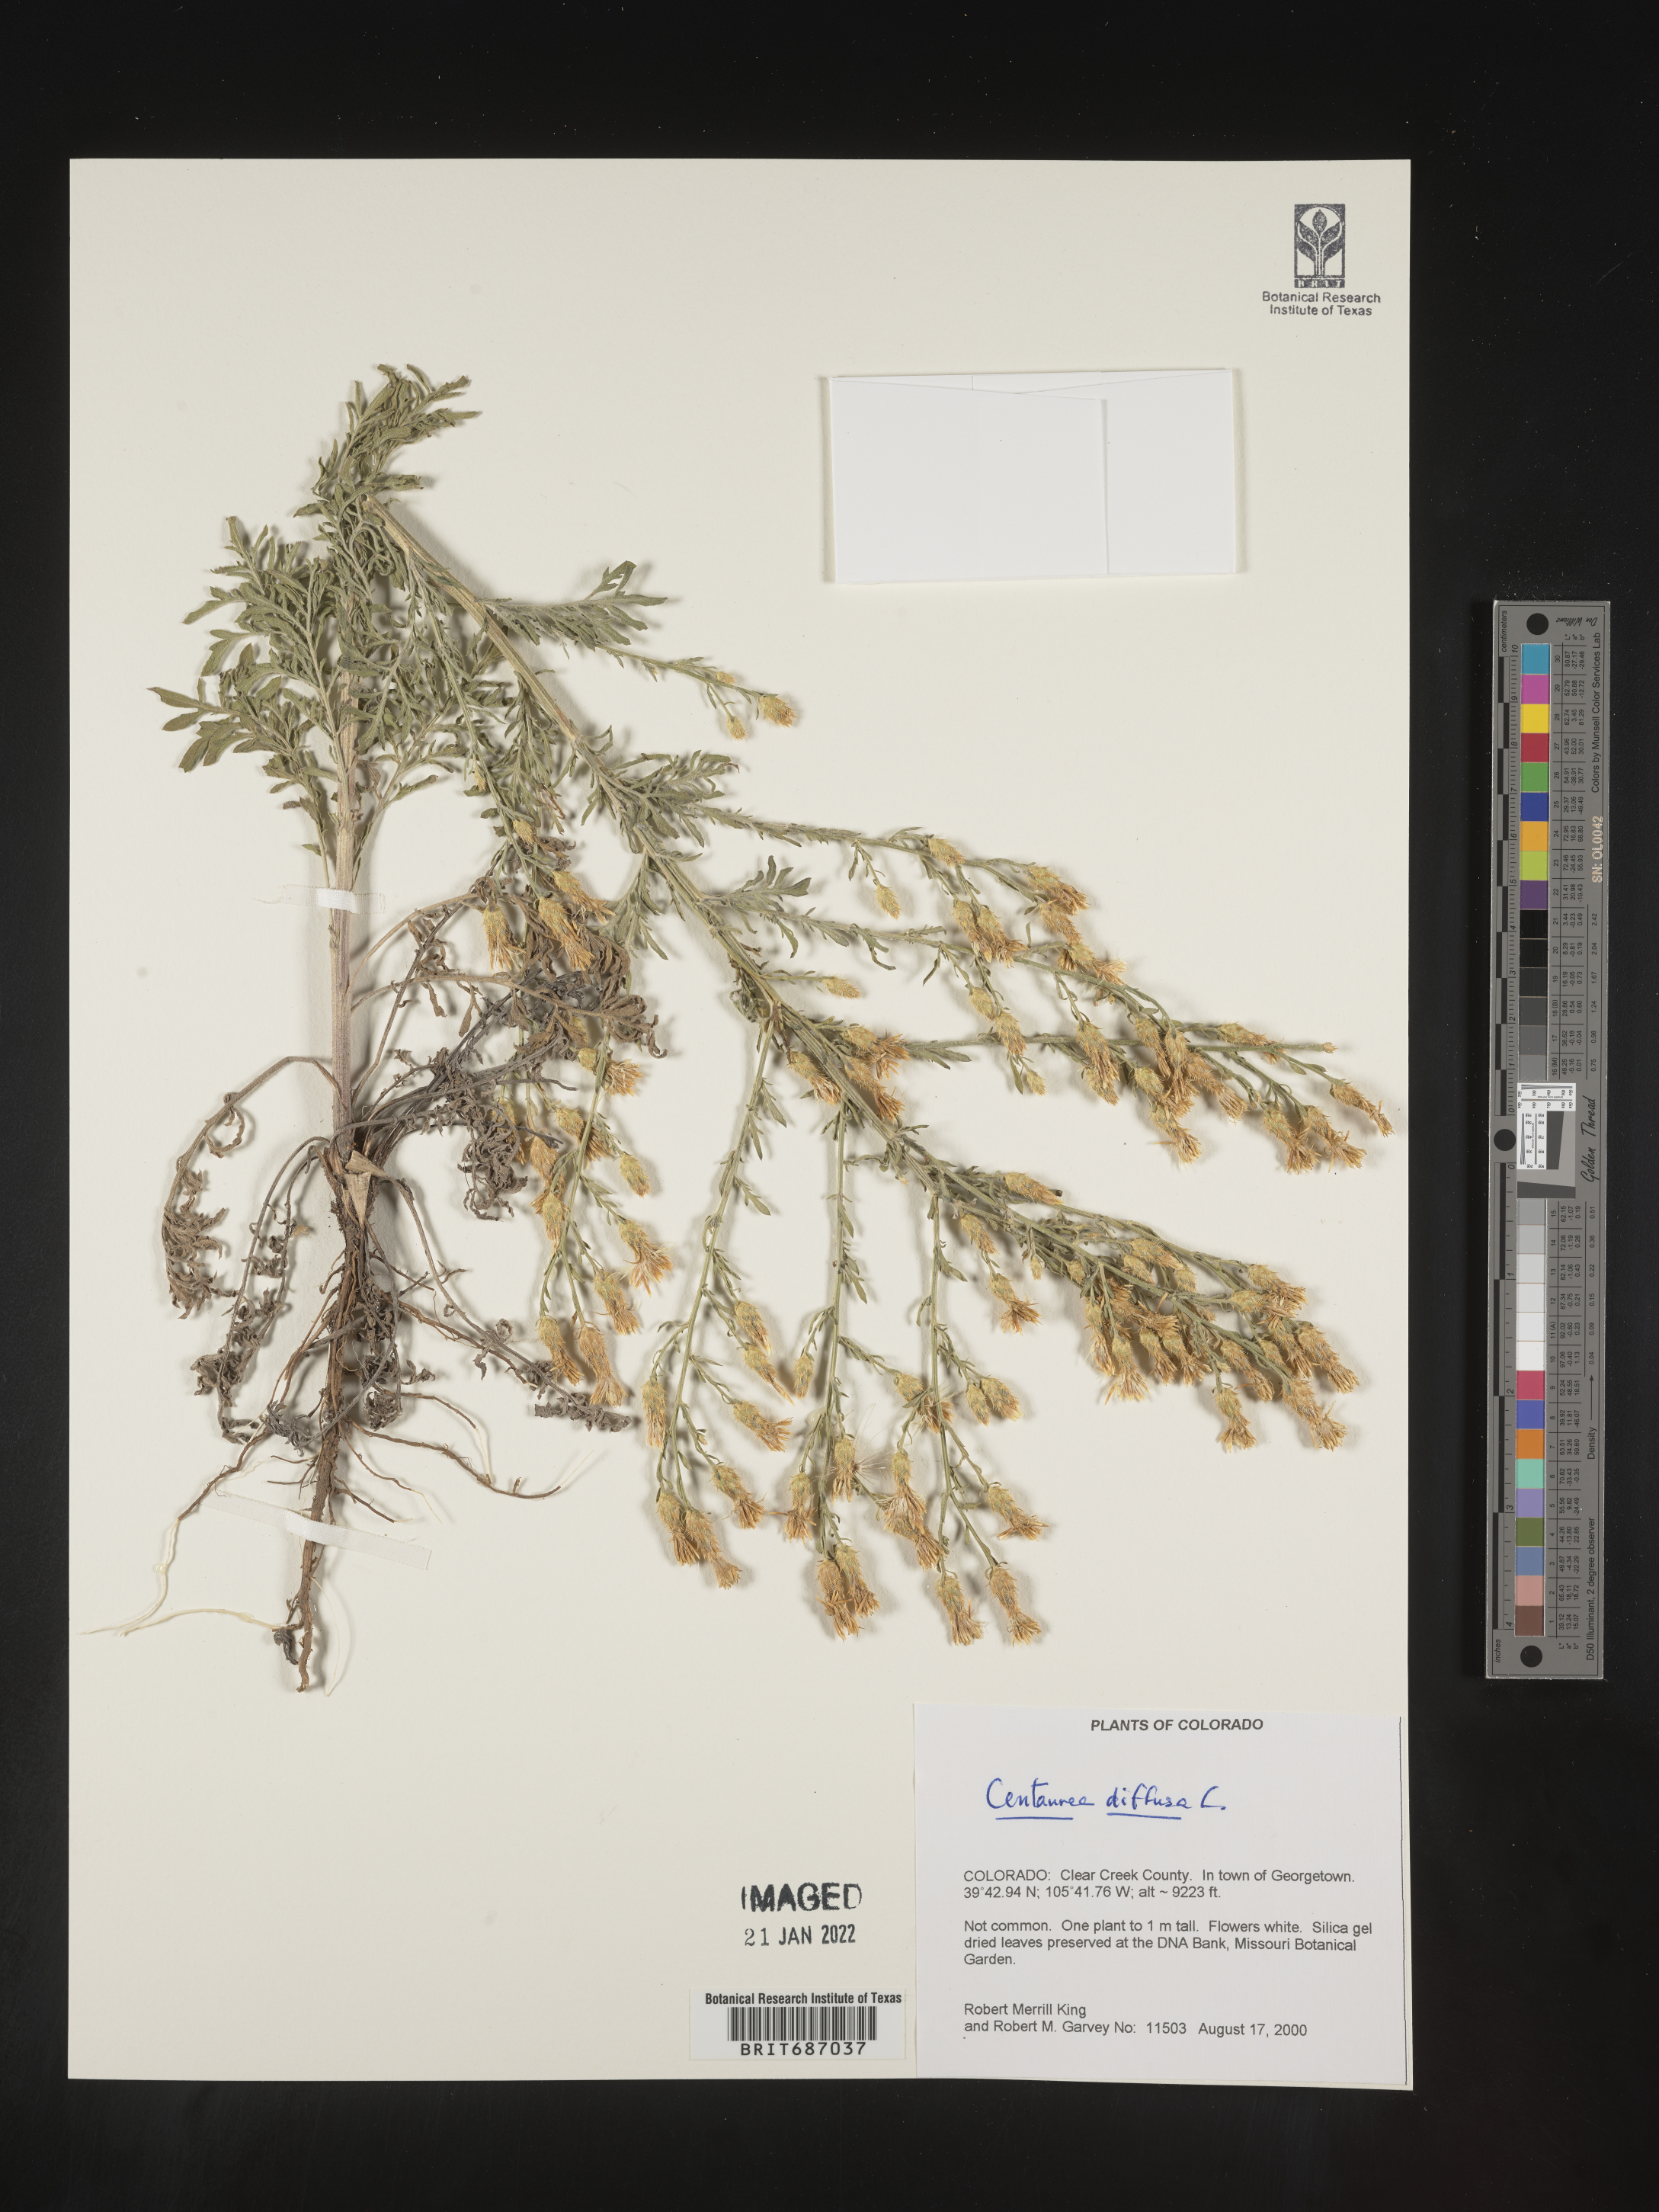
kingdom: Plantae
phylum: Tracheophyta
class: Magnoliopsida
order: Asterales
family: Asteraceae
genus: Centaurea
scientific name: Centaurea diffusa
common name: Diffuse knapweed
